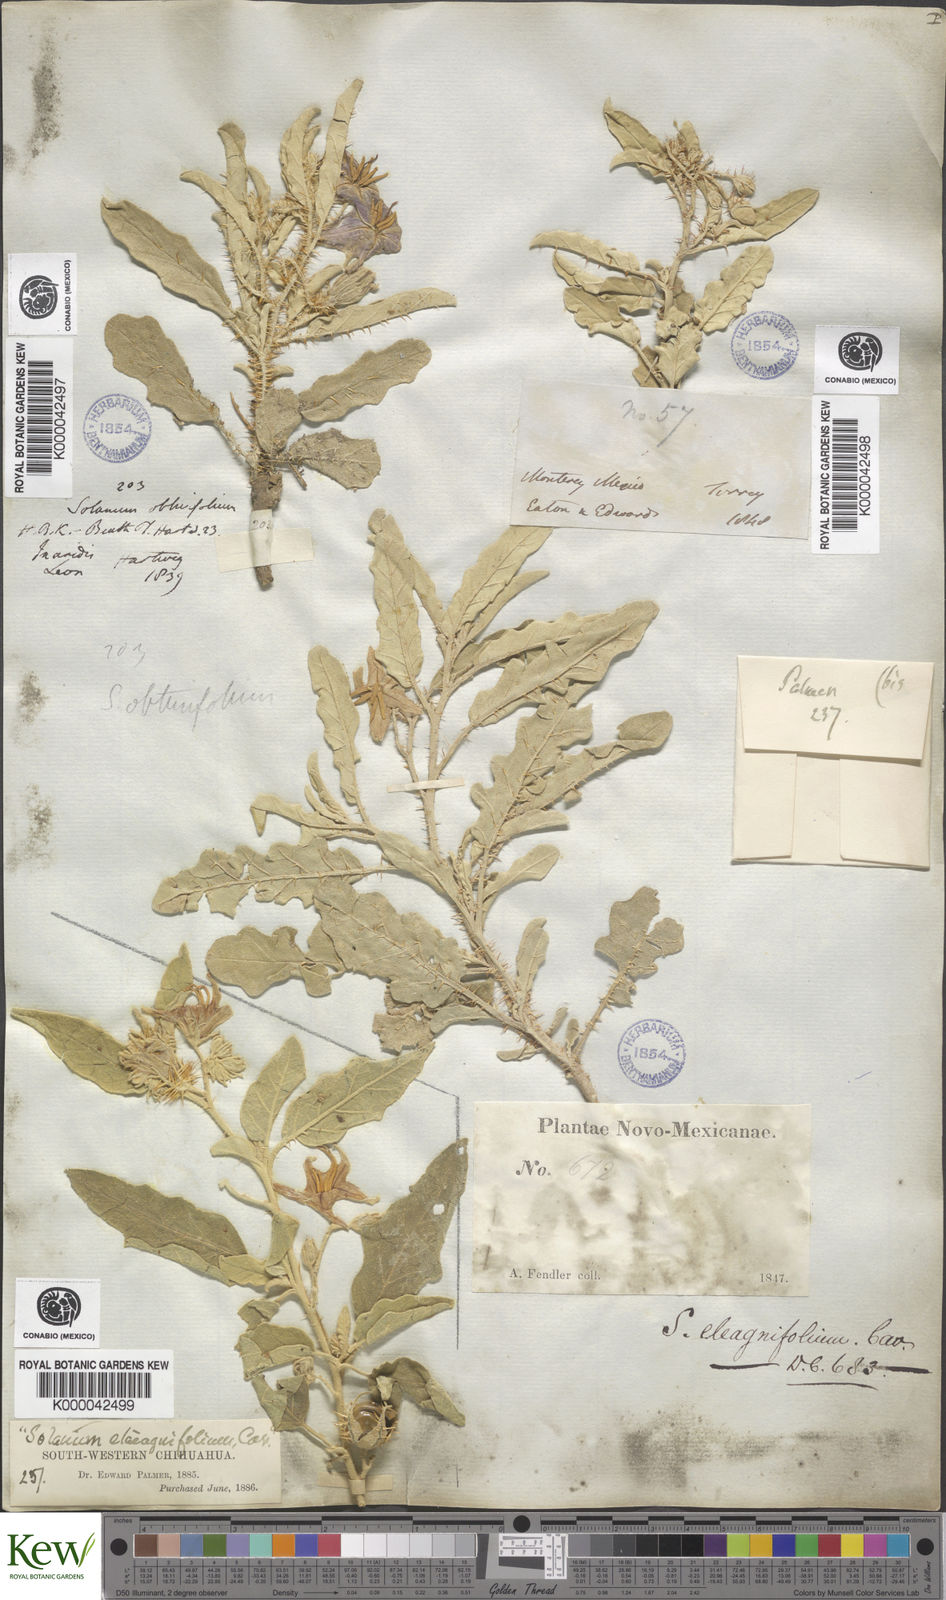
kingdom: Plantae
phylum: Tracheophyta
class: Magnoliopsida
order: Solanales
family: Solanaceae
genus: Solanum
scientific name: Solanum elaeagnifolium
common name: Silverleaf nightshade
